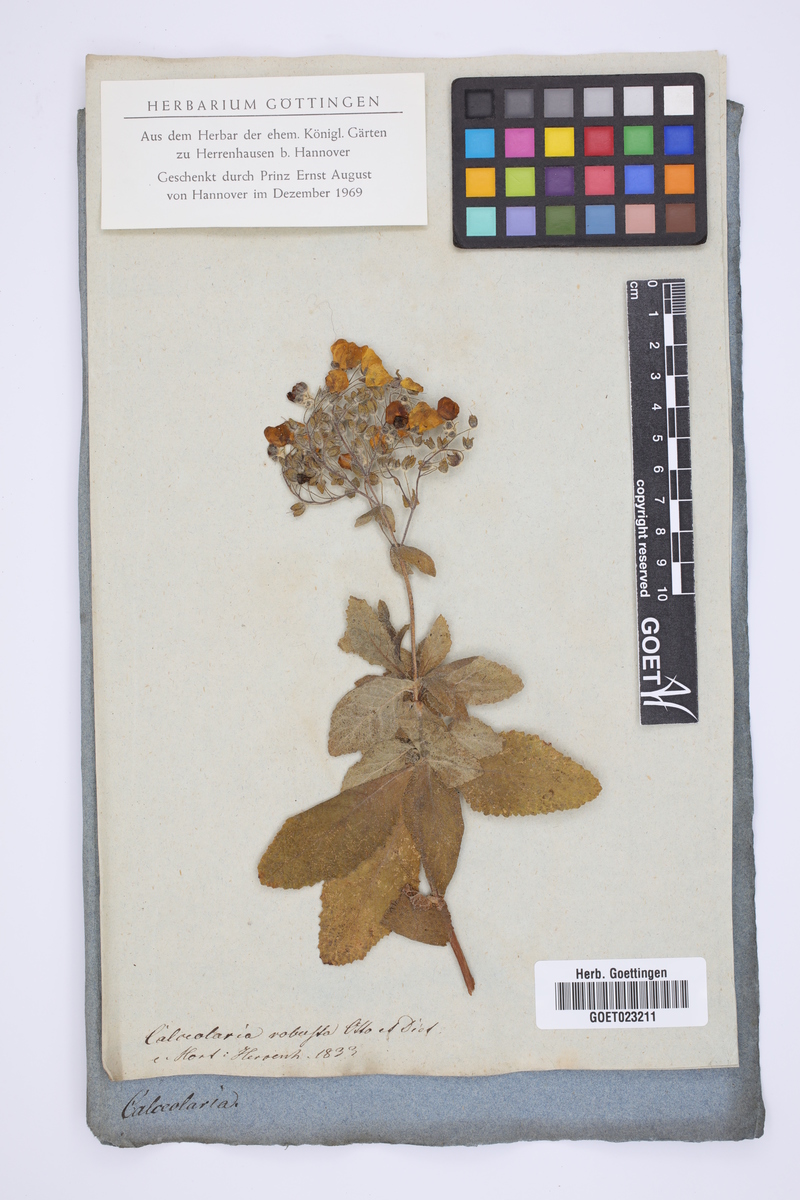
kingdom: Plantae
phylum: Tracheophyta
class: Magnoliopsida
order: Lamiales
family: Calceolariaceae
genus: Calceolaria
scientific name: Calceolaria viscosissima
